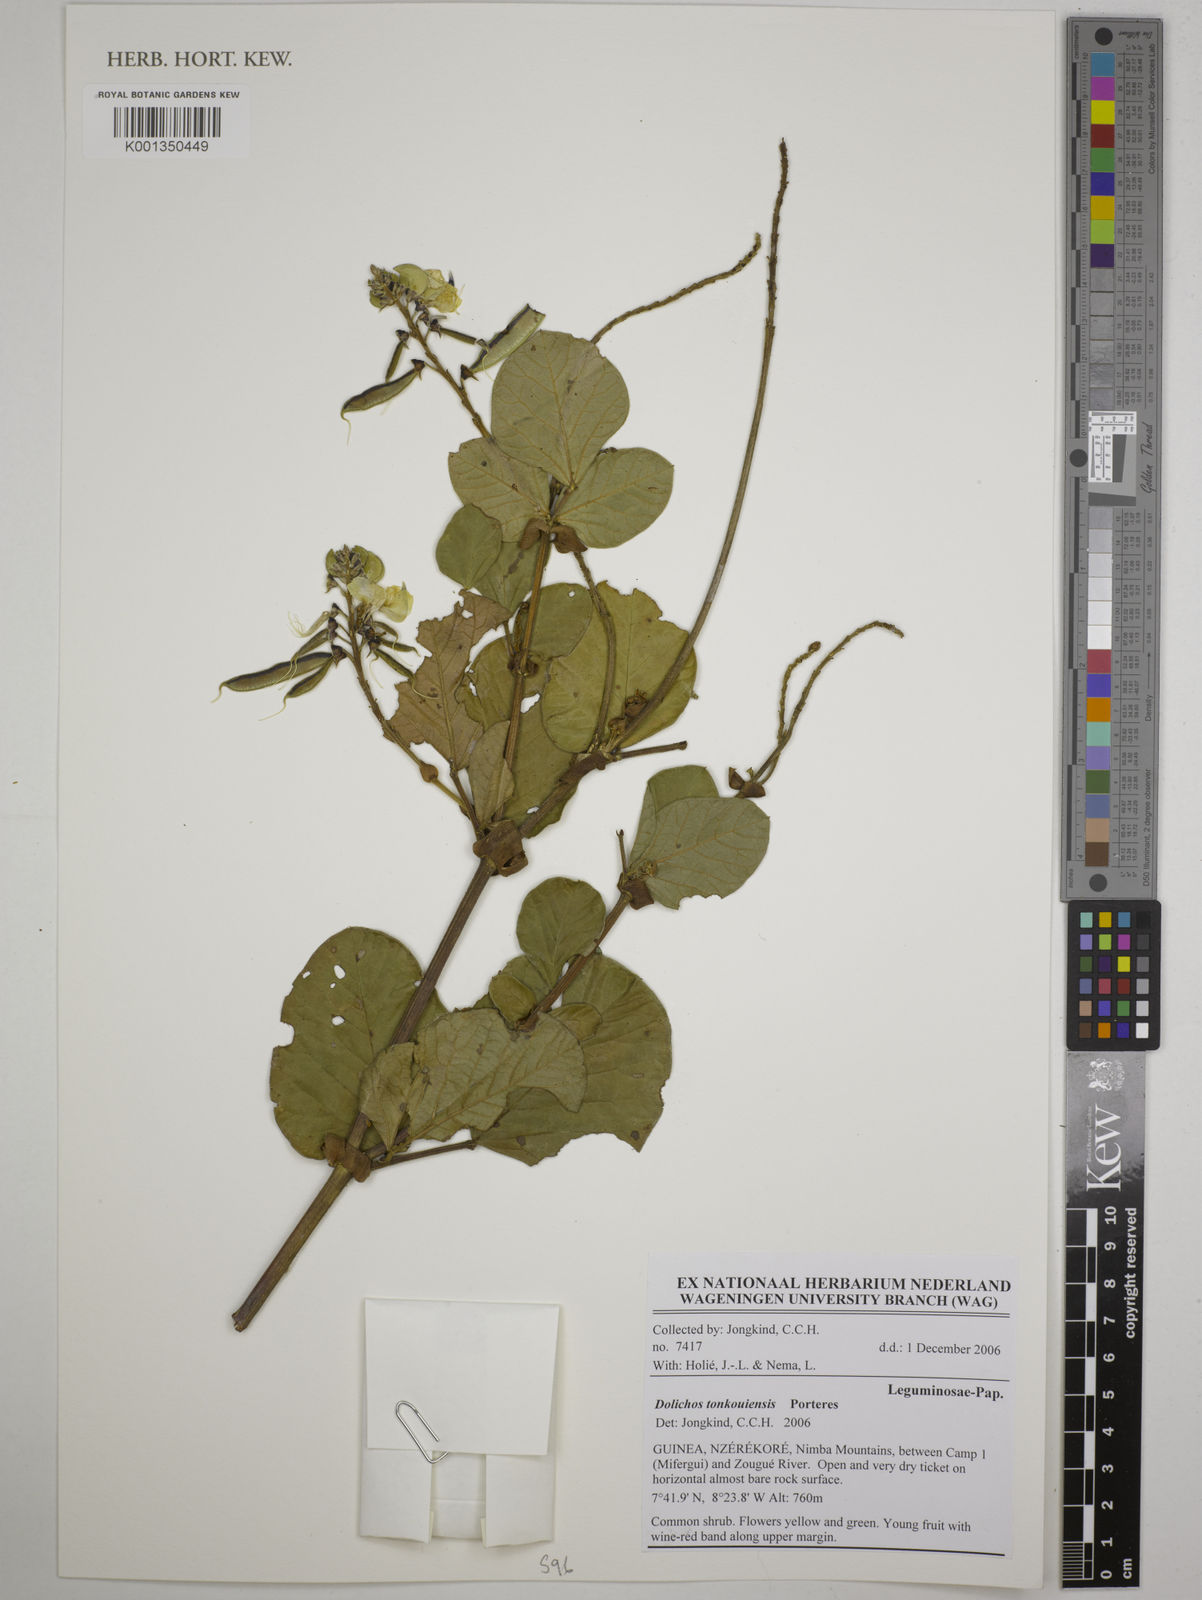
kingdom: Plantae
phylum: Tracheophyta
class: Magnoliopsida
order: Fabales
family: Fabaceae
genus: Dolichos
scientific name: Dolichos tonkouiensis
